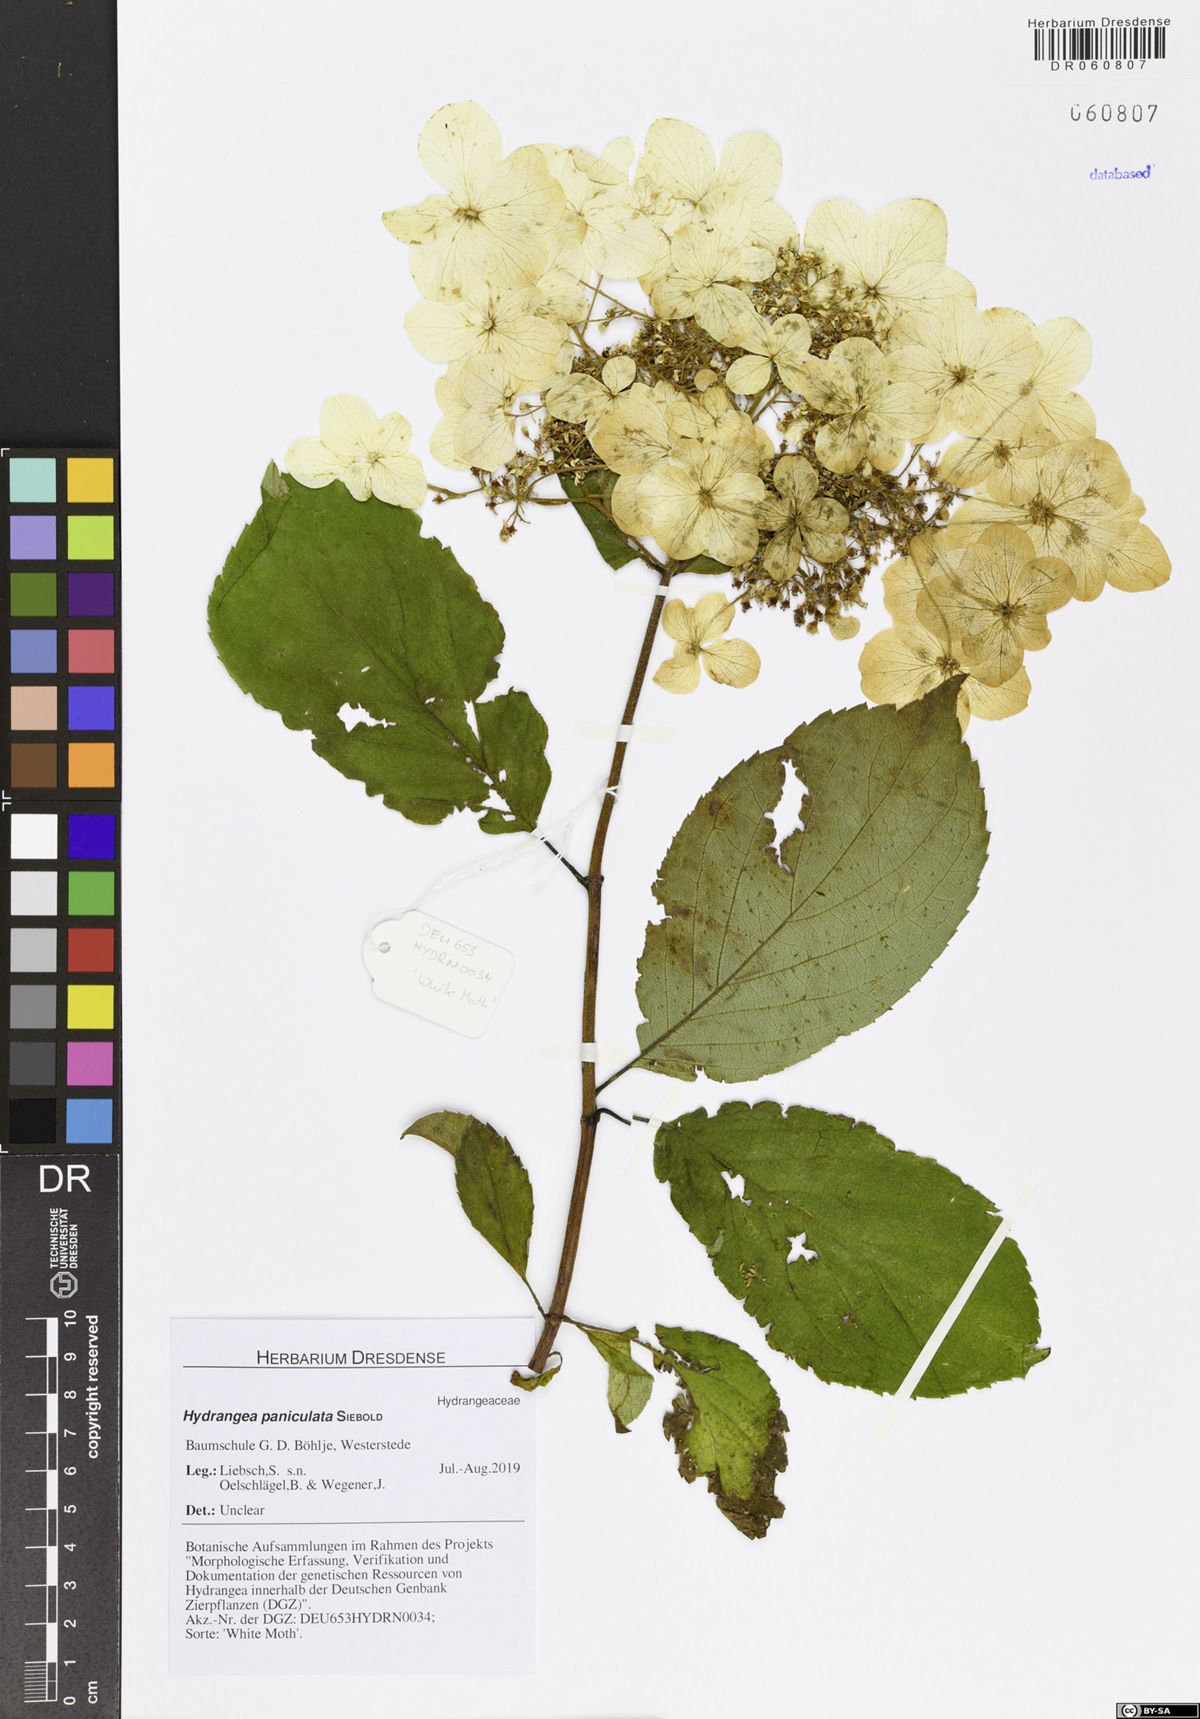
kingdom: Plantae
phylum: Tracheophyta
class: Magnoliopsida
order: Cornales
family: Hydrangeaceae
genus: Hydrangea
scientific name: Hydrangea paniculata
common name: Panicled hydrangea
